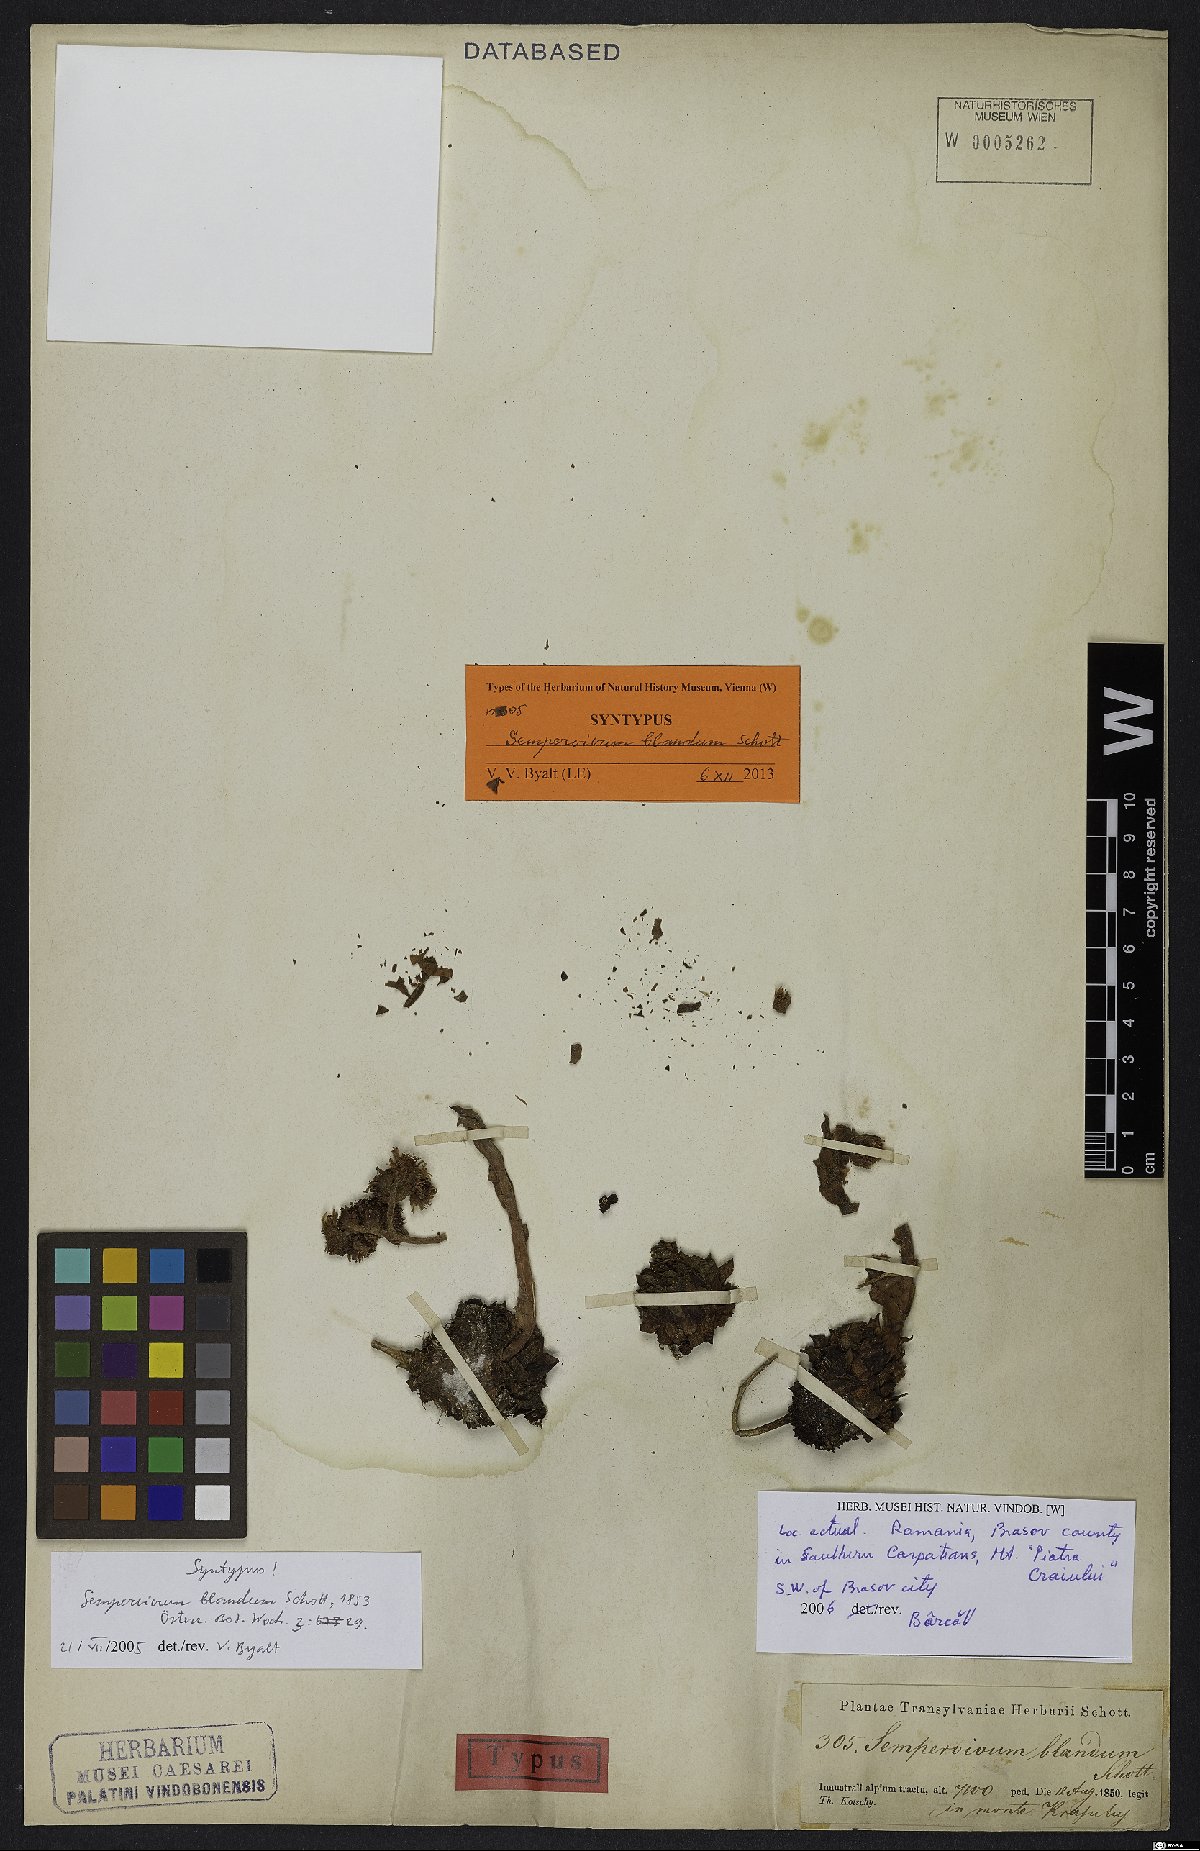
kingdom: Plantae
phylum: Tracheophyta
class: Magnoliopsida
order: Saxifragales
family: Crassulaceae
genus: Sempervivum
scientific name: Sempervivum marmoreum
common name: Houseleek
